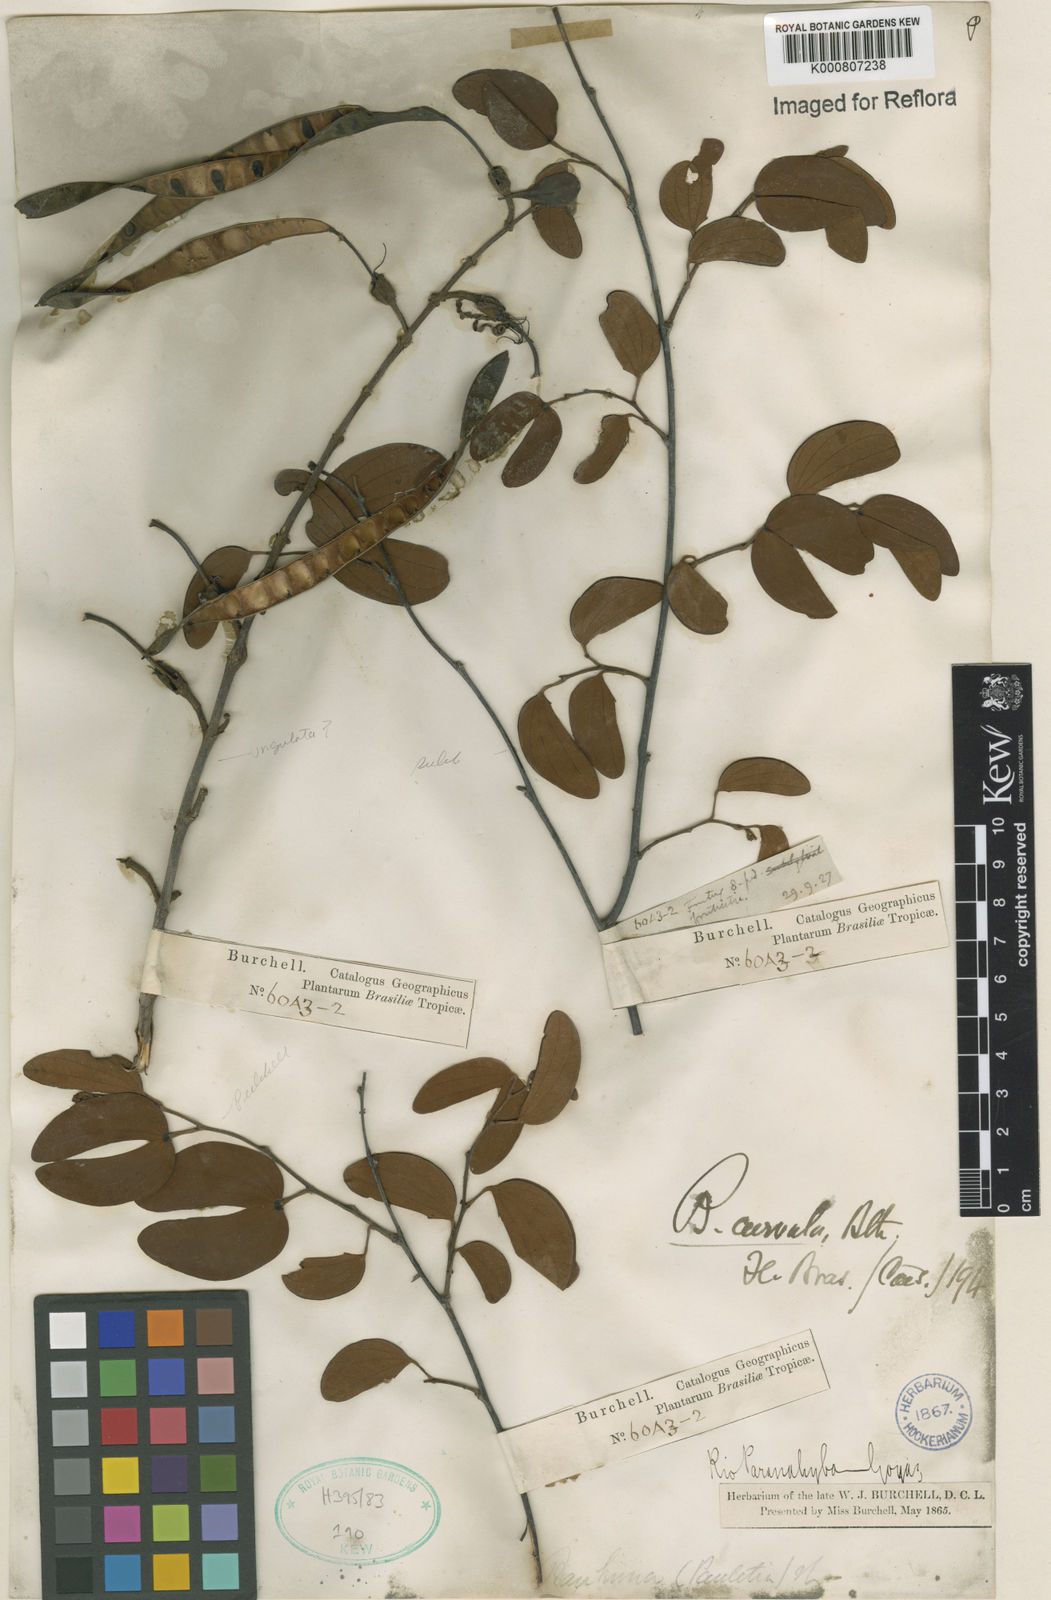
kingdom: Plantae
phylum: Tracheophyta
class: Magnoliopsida
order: Fabales
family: Fabaceae
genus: Bauhinia
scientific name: Bauhinia curvula
